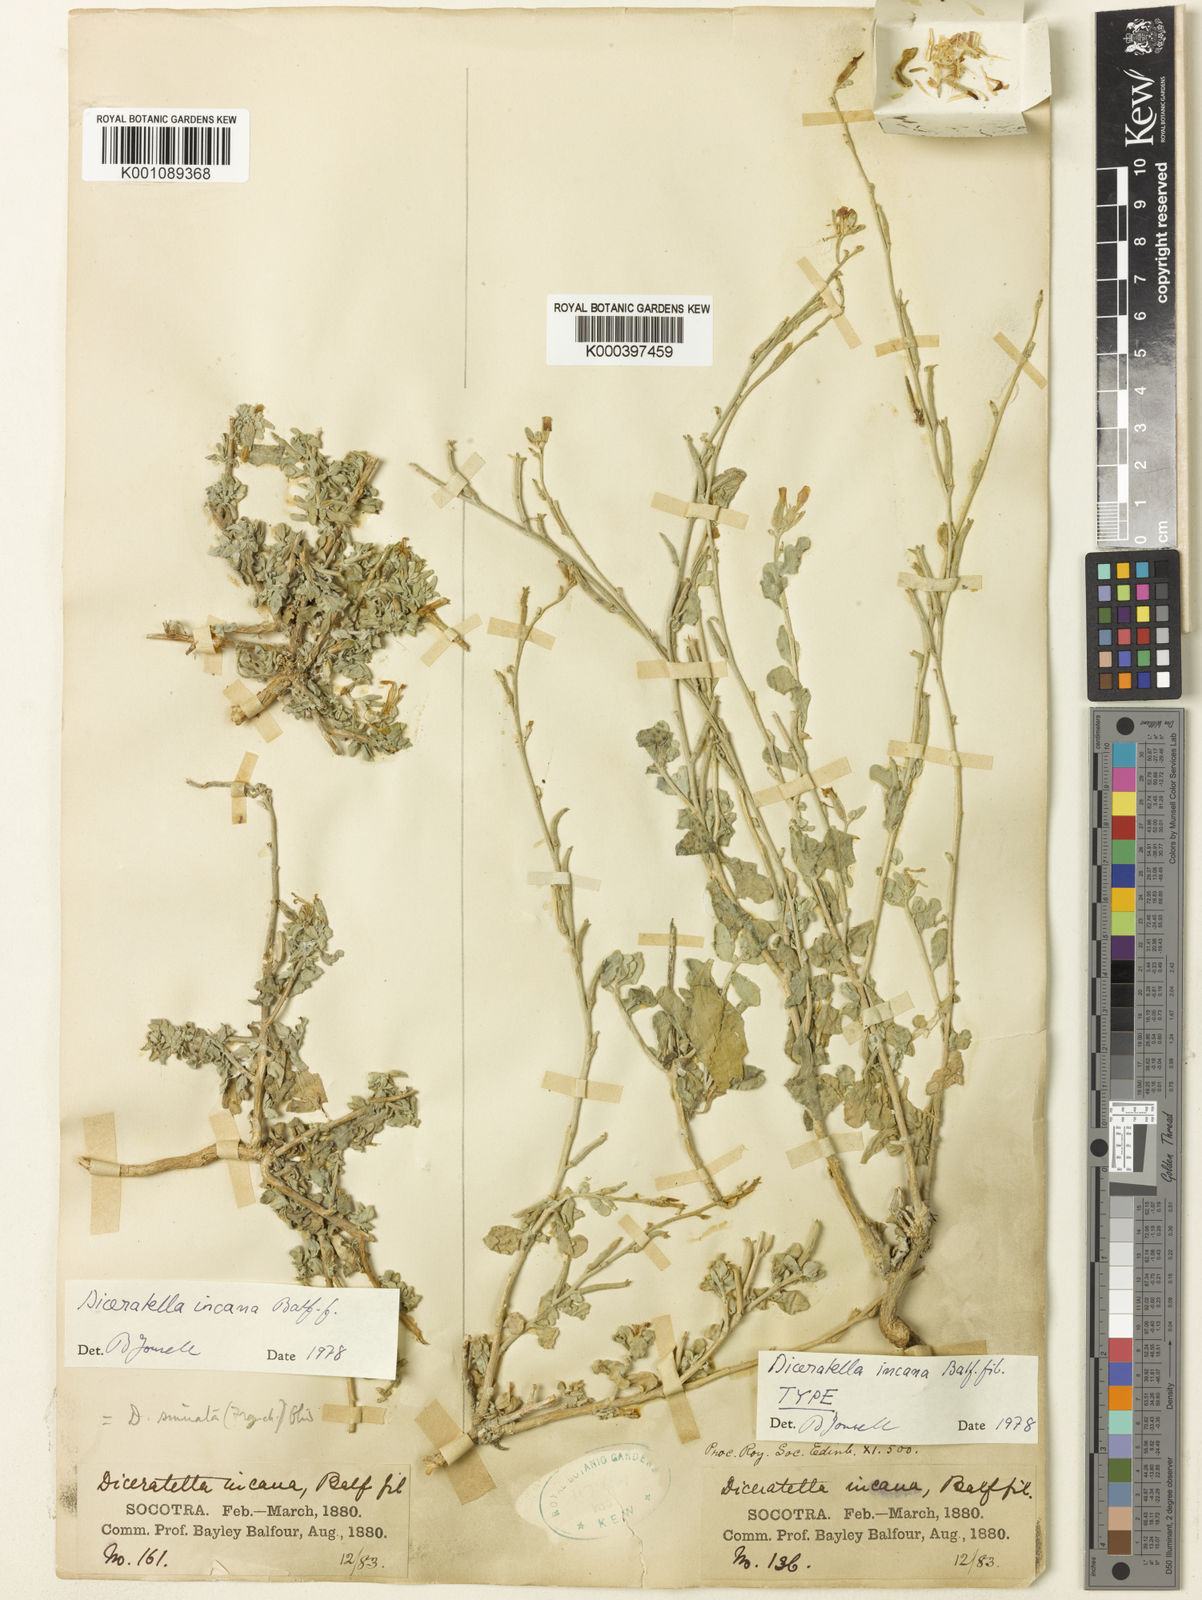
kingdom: Plantae
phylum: Tracheophyta
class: Magnoliopsida
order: Brassicales
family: Brassicaceae
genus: Diceratella
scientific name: Diceratella incana
